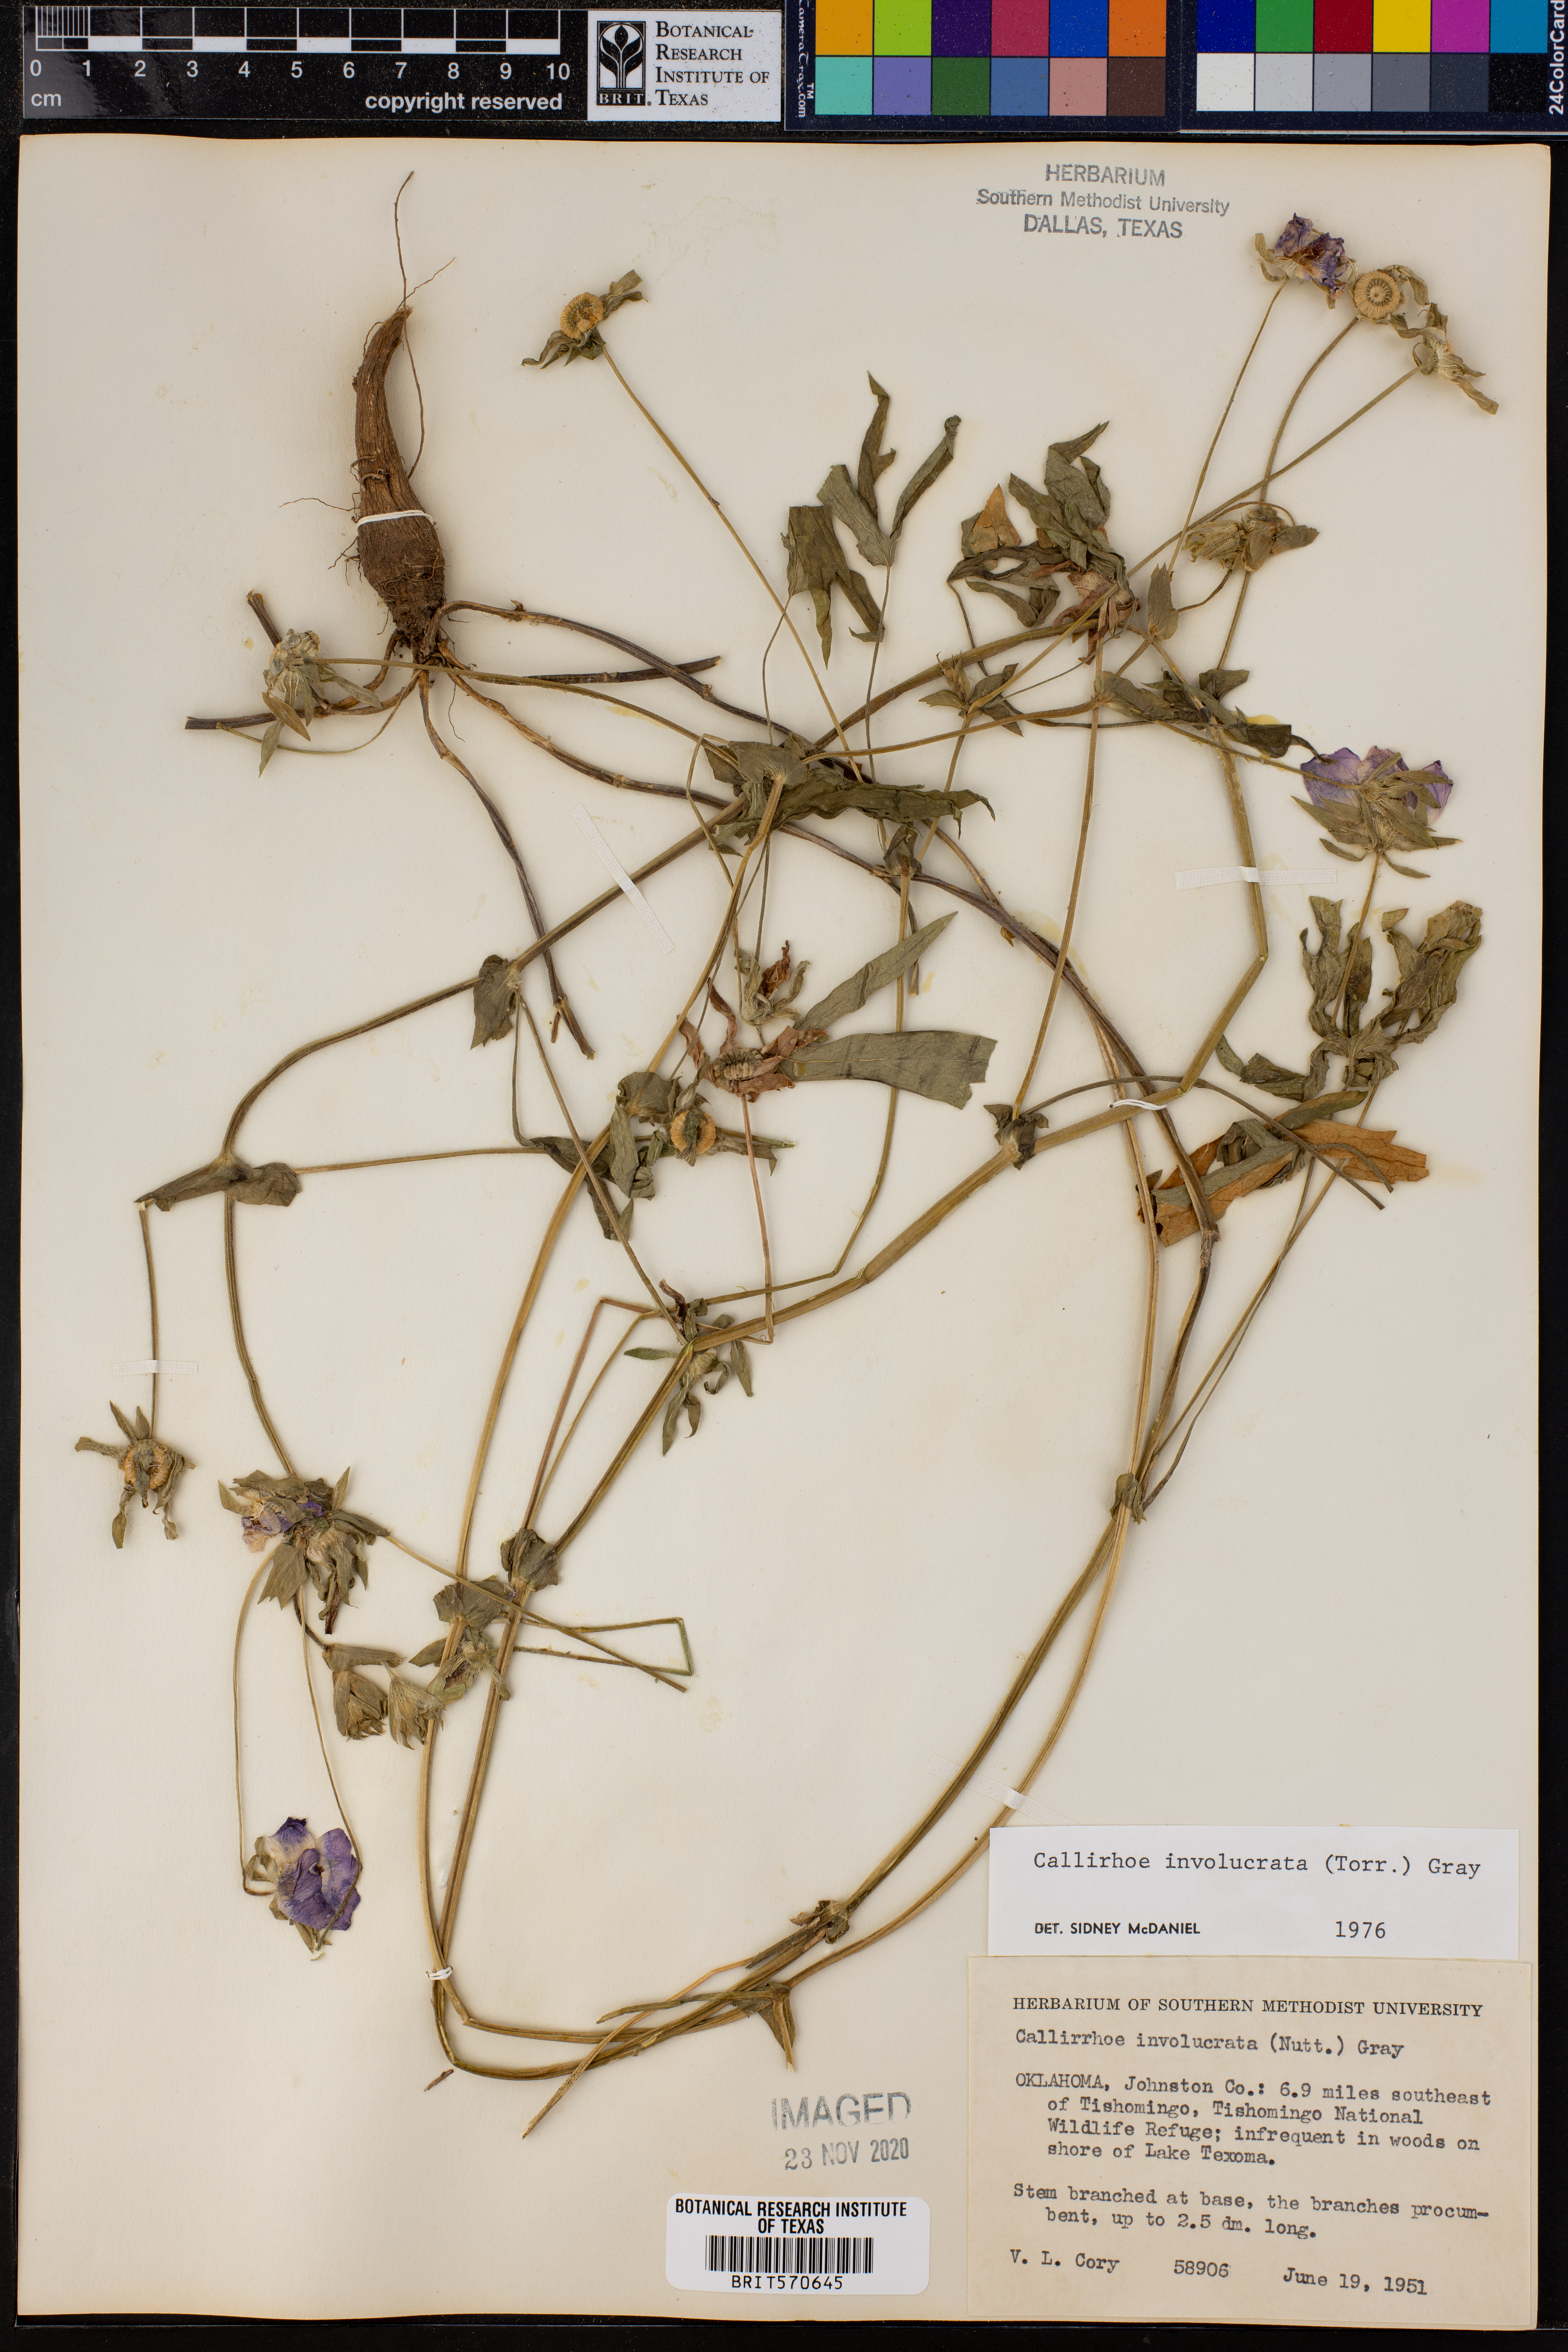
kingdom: Plantae
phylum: Tracheophyta
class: Magnoliopsida
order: Malvales
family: Malvaceae
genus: Callirhoe
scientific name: Callirhoe involucrata
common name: Purple poppy-mallow
